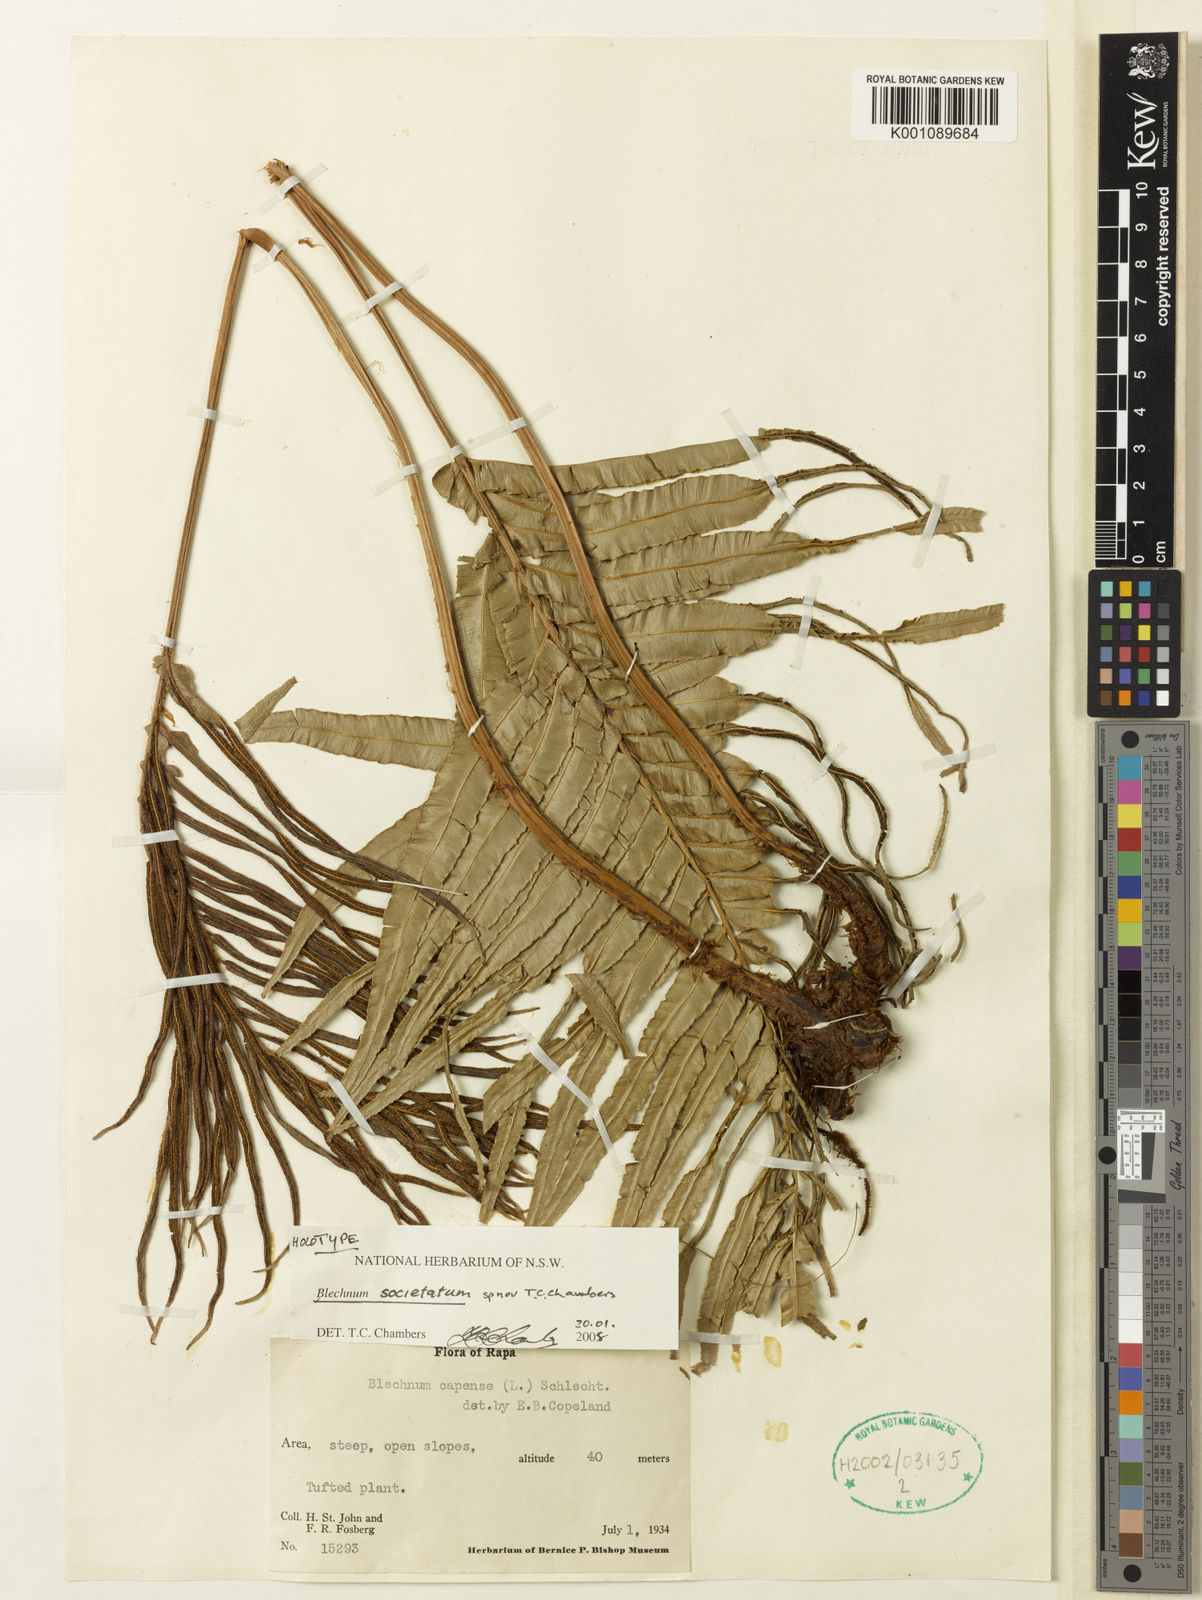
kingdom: Plantae
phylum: Tracheophyta
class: Polypodiopsida
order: Polypodiales
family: Blechnaceae
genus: Blechnum
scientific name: Blechnum
